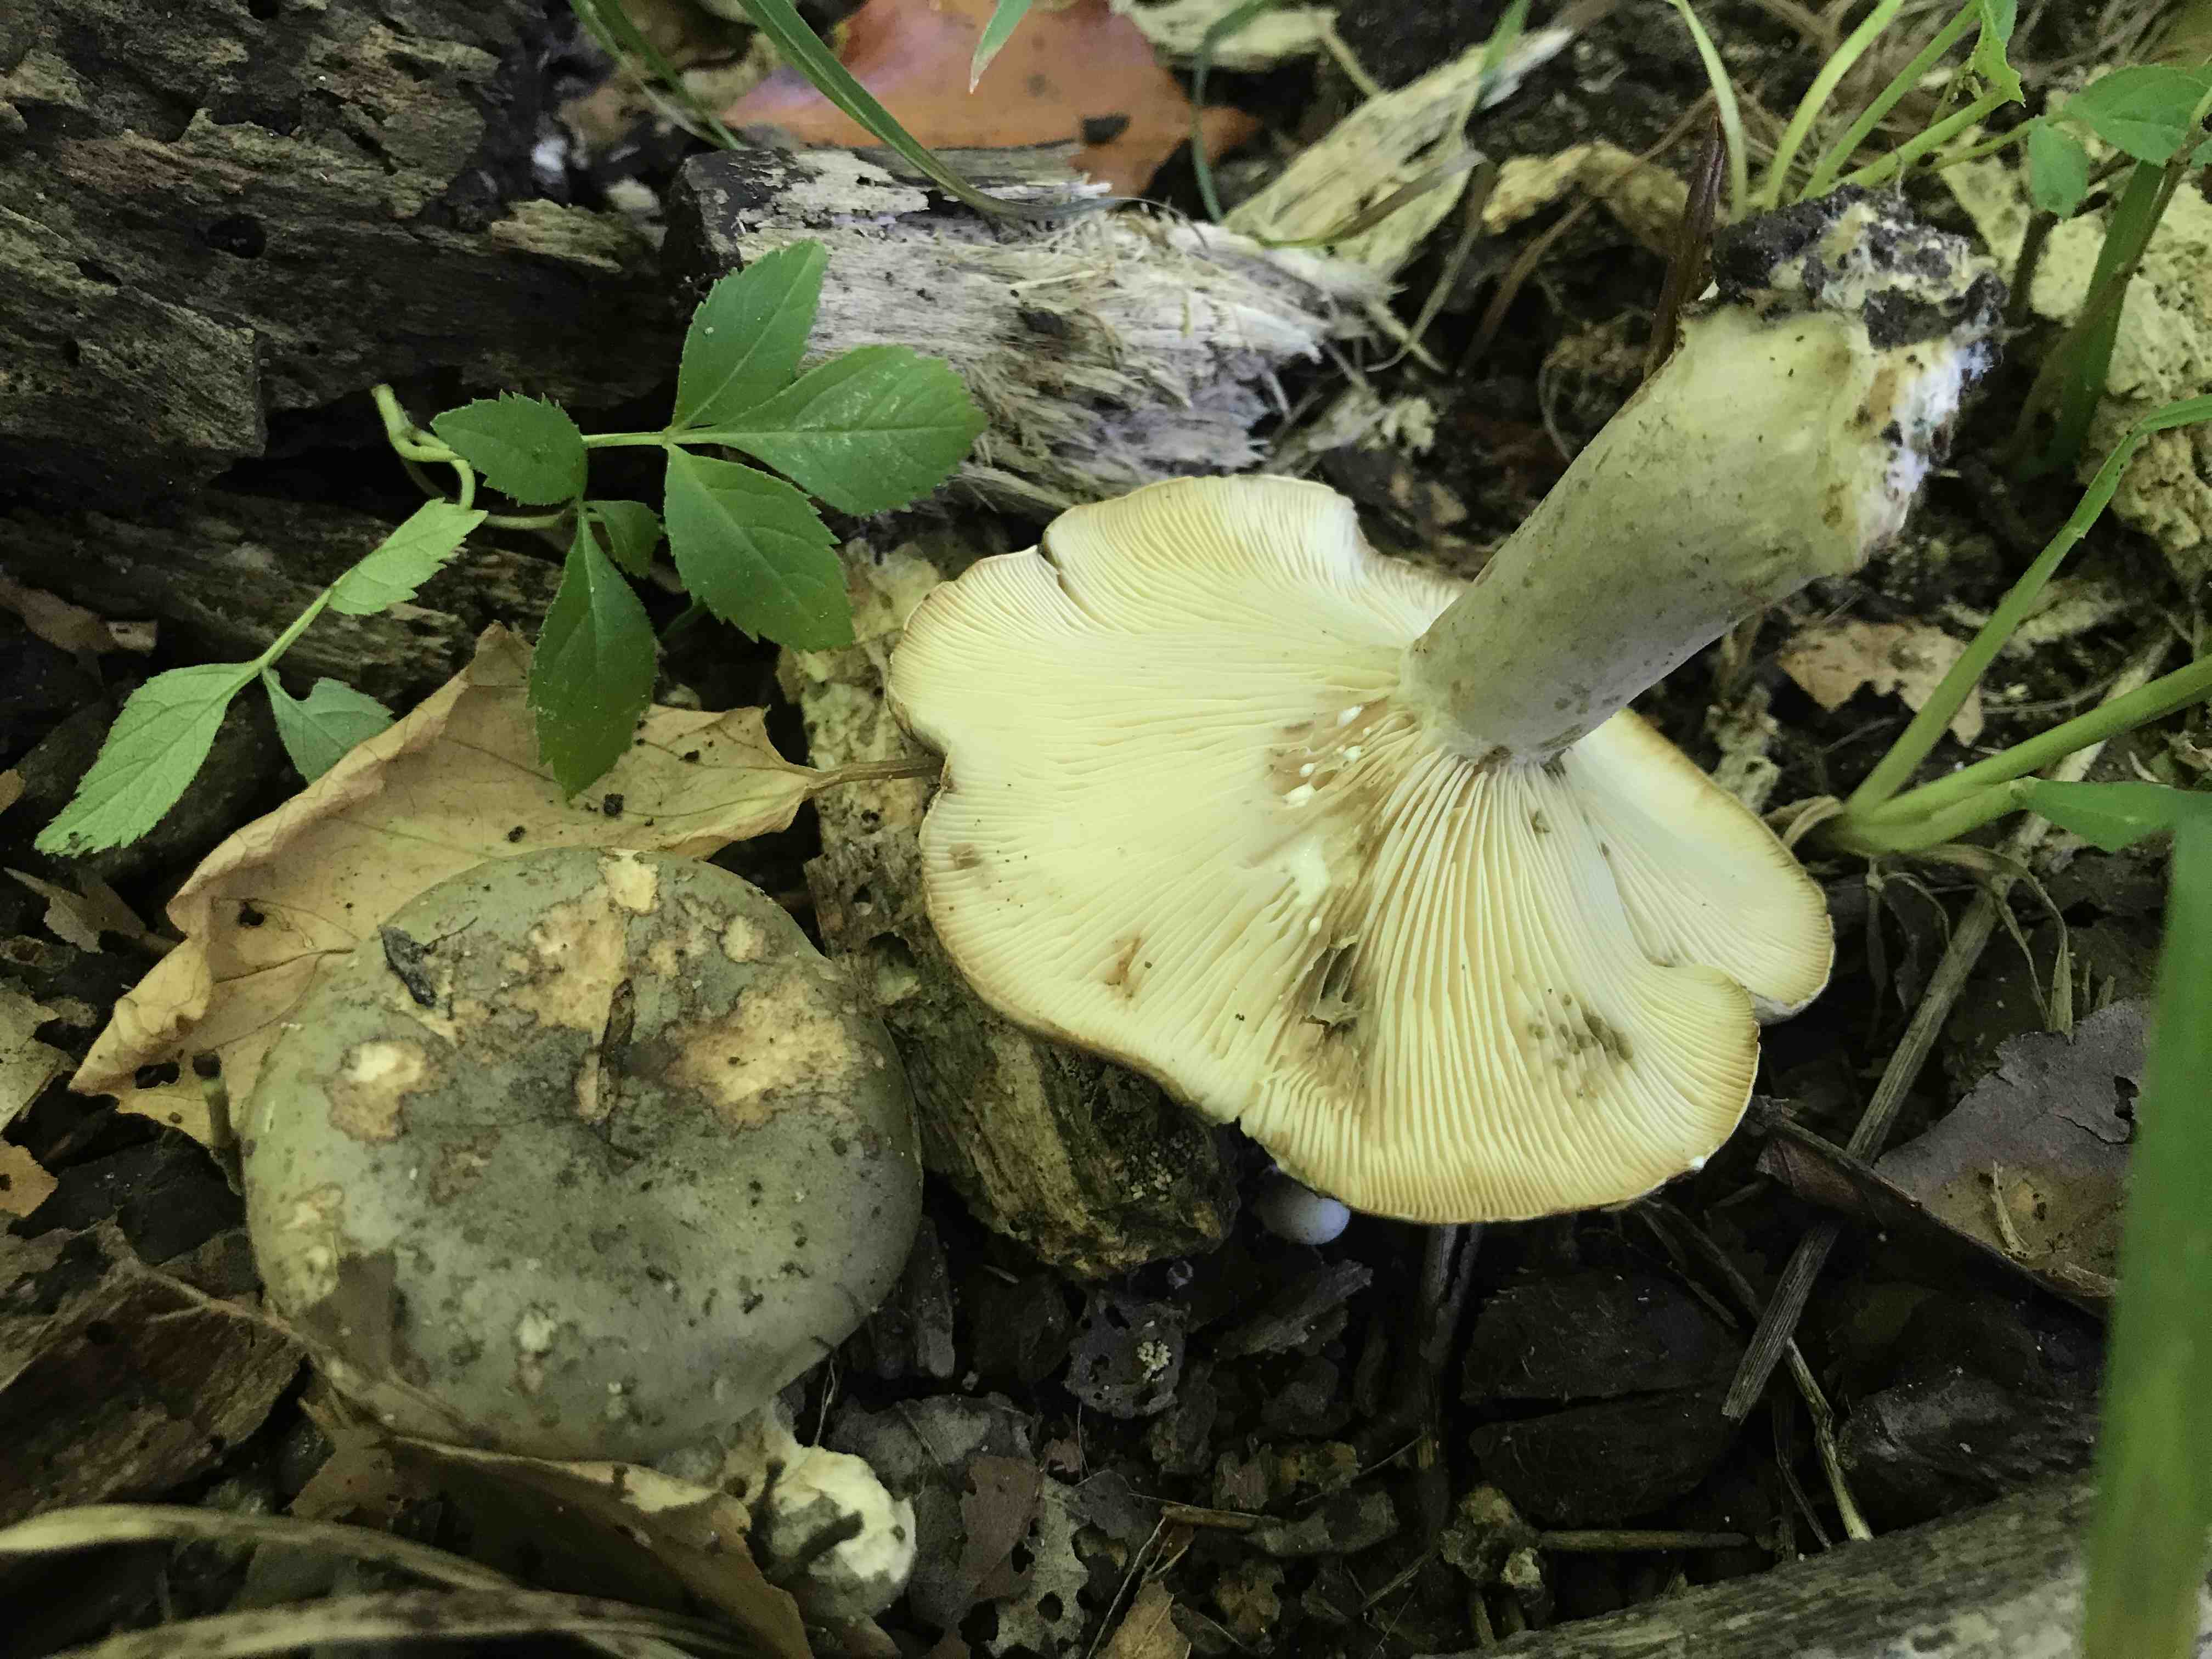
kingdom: Fungi
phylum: Basidiomycota
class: Agaricomycetes
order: Russulales
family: Russulaceae
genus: Lactarius
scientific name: Lactarius blennius
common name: dråbeplettet mælkehat
